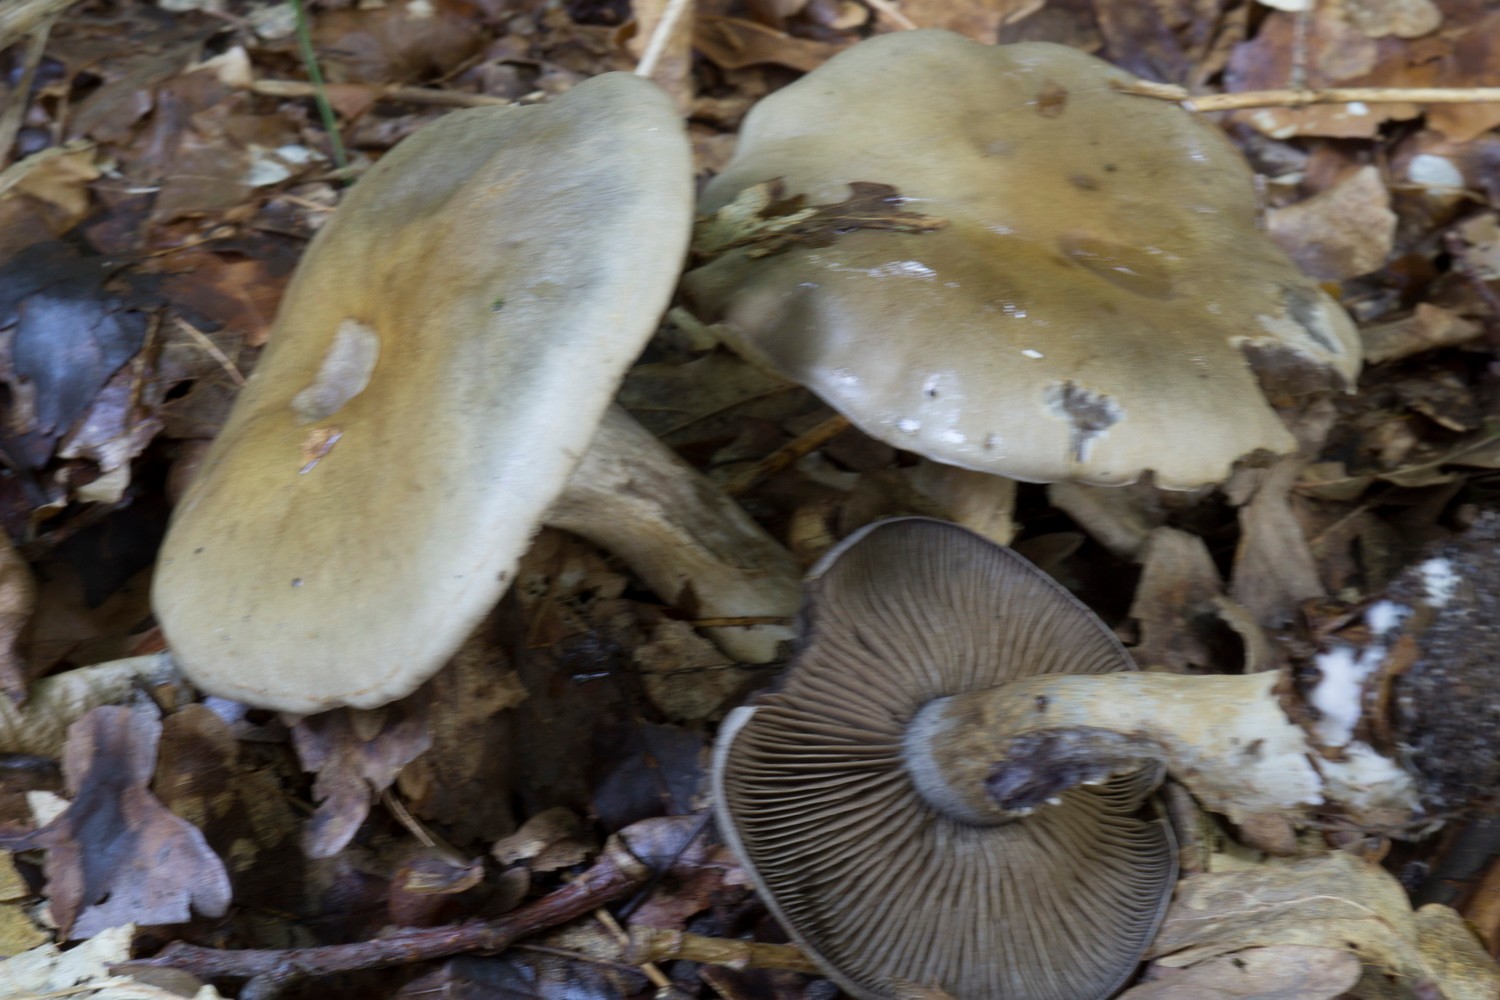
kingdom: Fungi
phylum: Basidiomycota
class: Agaricomycetes
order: Agaricales
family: Cortinariaceae
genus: Cortinarius
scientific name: Cortinarius
